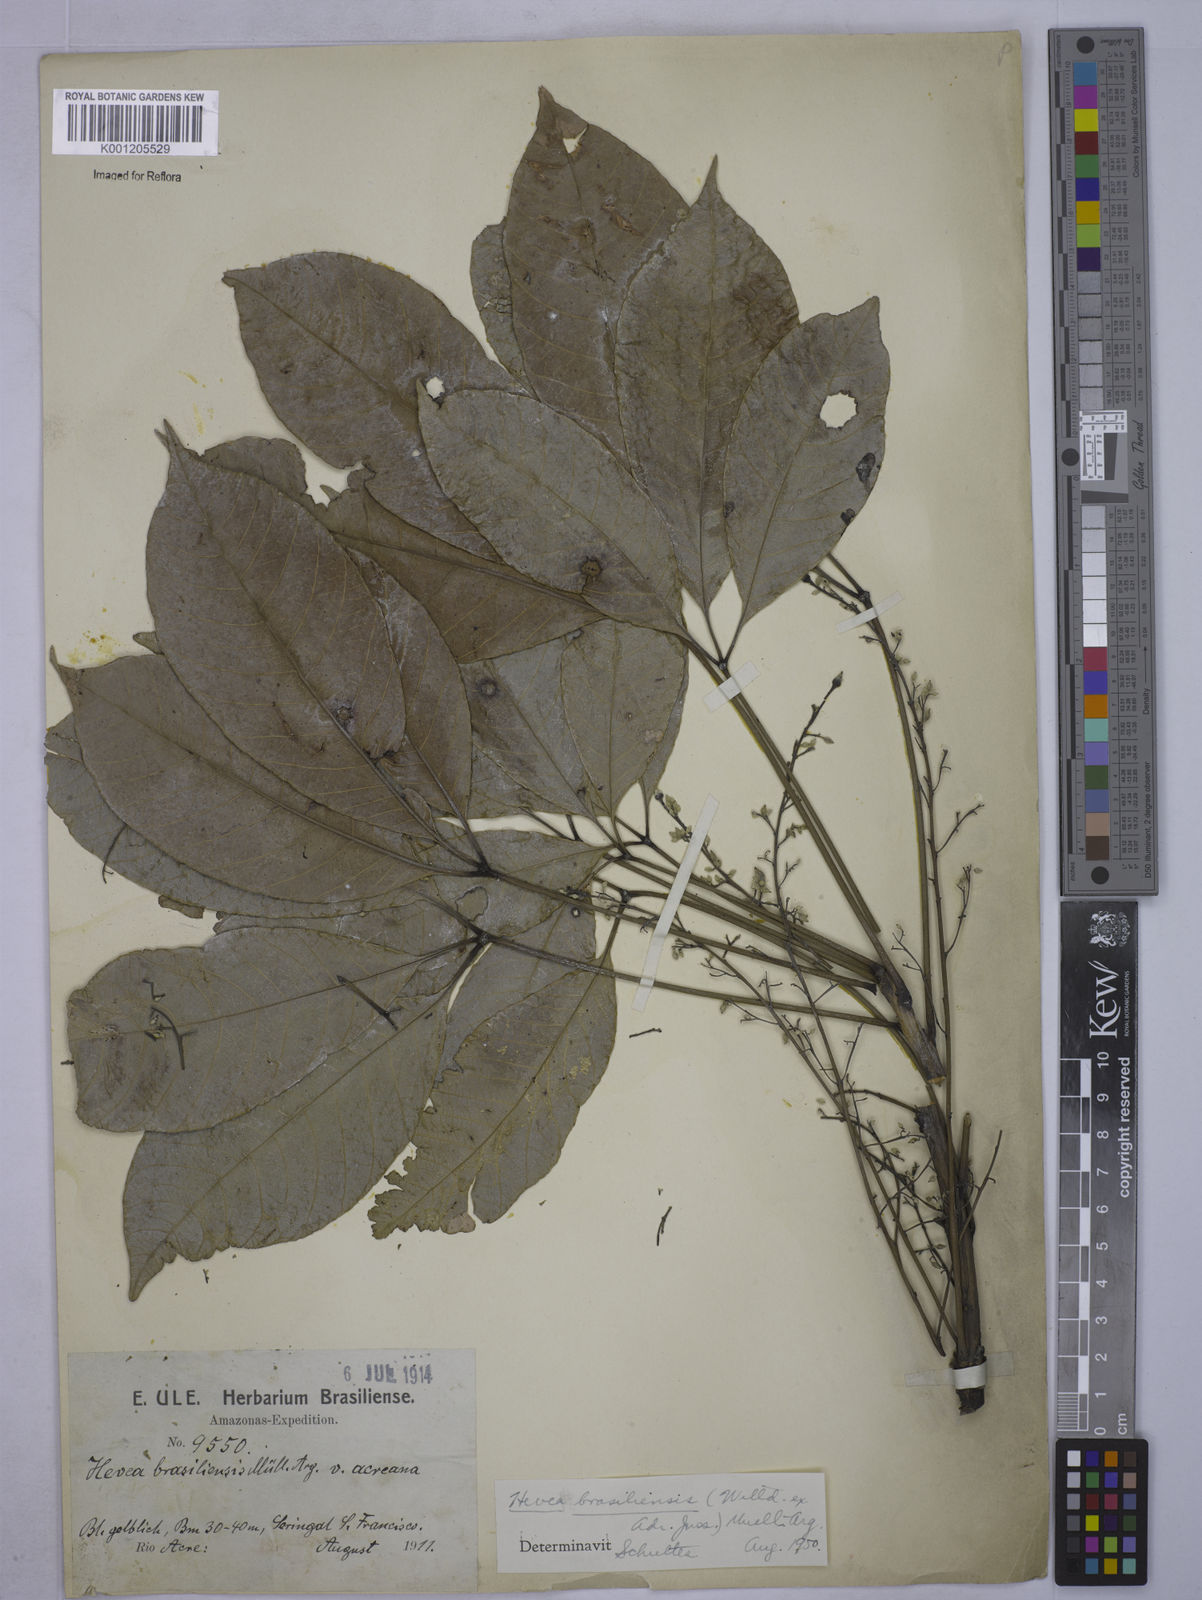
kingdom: Plantae
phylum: Tracheophyta
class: Magnoliopsida
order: Malpighiales
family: Euphorbiaceae
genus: Hevea
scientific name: Hevea
